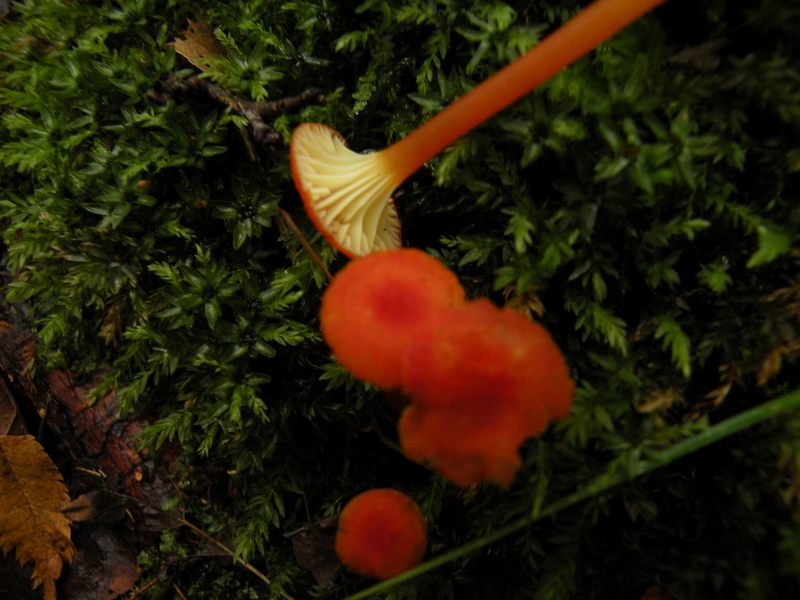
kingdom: Fungi
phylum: Basidiomycota
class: Agaricomycetes
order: Agaricales
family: Hygrophoraceae
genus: Hygrocybe
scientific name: Hygrocybe cantharellus
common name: kantarel-vokshat
